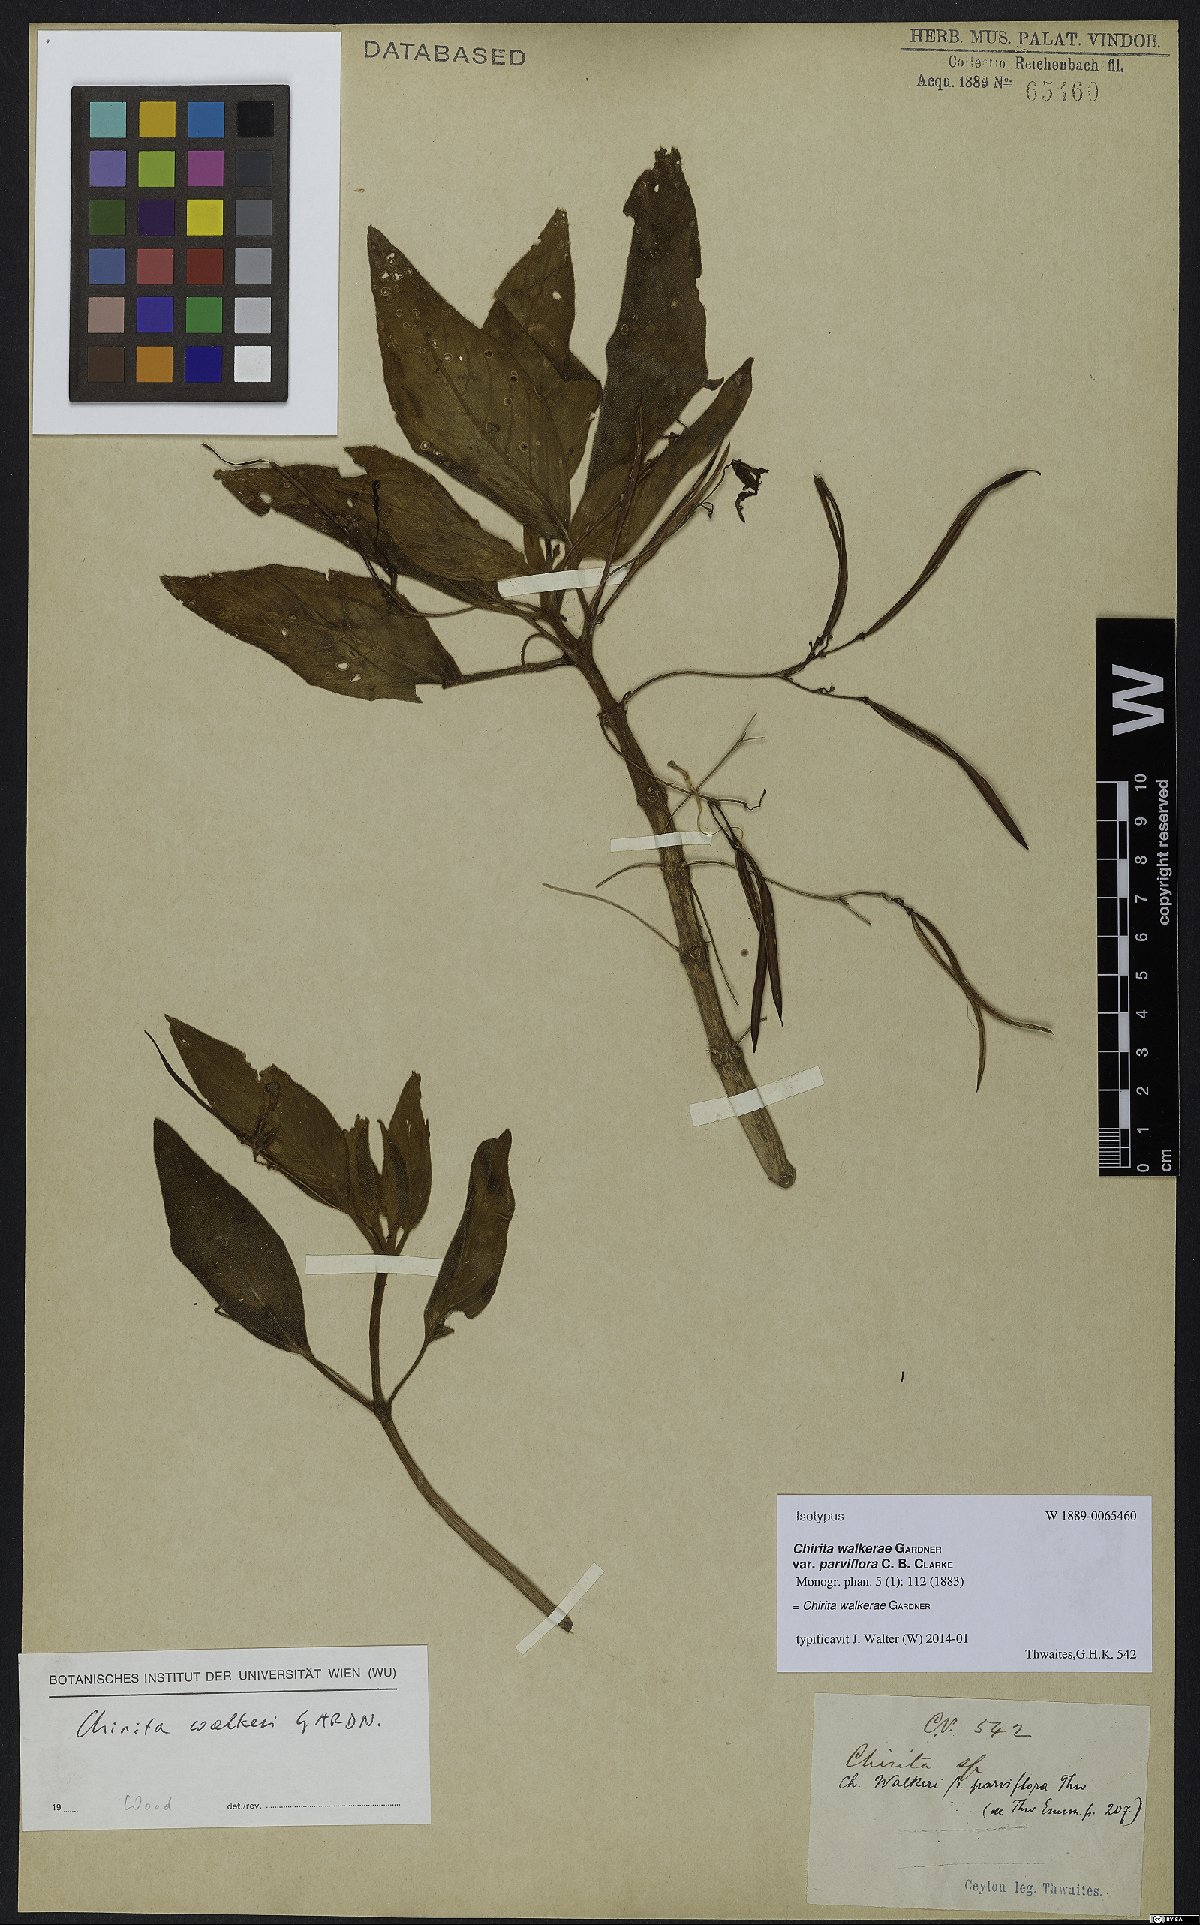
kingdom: Plantae
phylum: Tracheophyta
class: Magnoliopsida
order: Lamiales
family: Gesneriaceae
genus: Henckelia
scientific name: Henckelia walkerae
